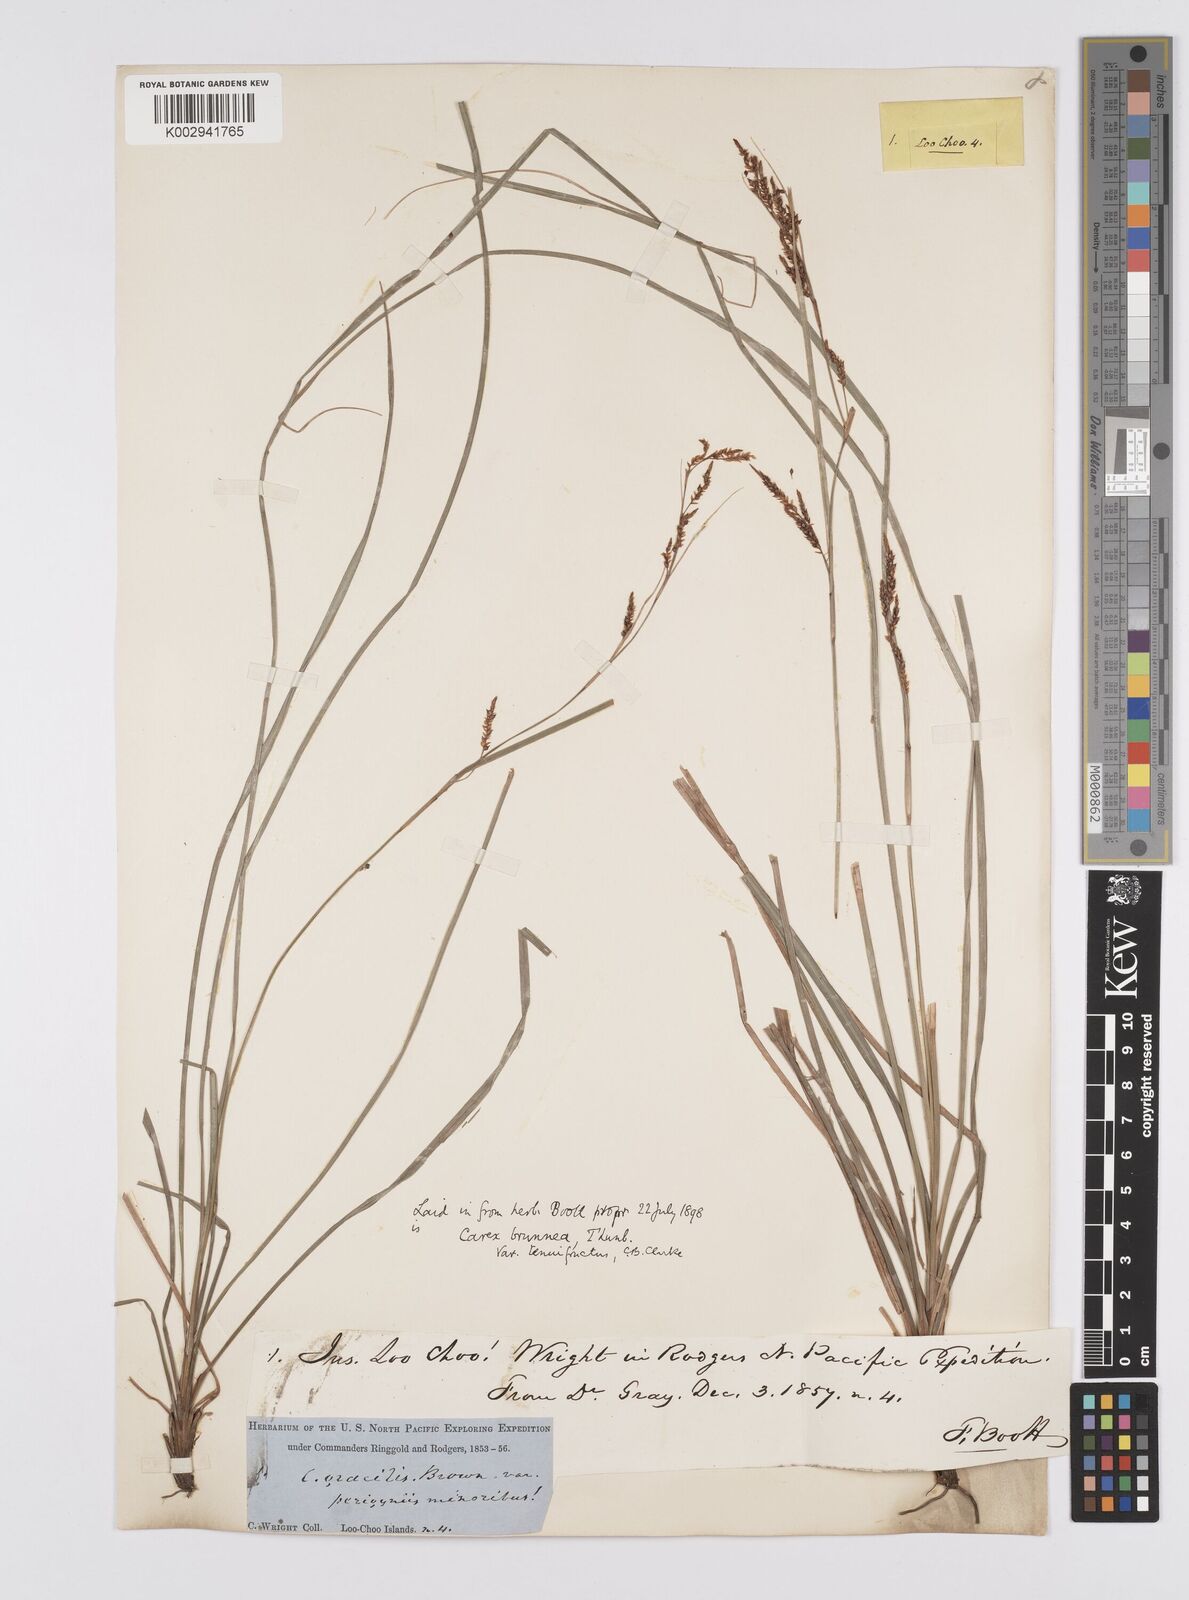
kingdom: Plantae
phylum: Tracheophyta
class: Liliopsida
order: Poales
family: Cyperaceae
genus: Carex
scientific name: Carex brunnea
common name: Greater brown sedge
